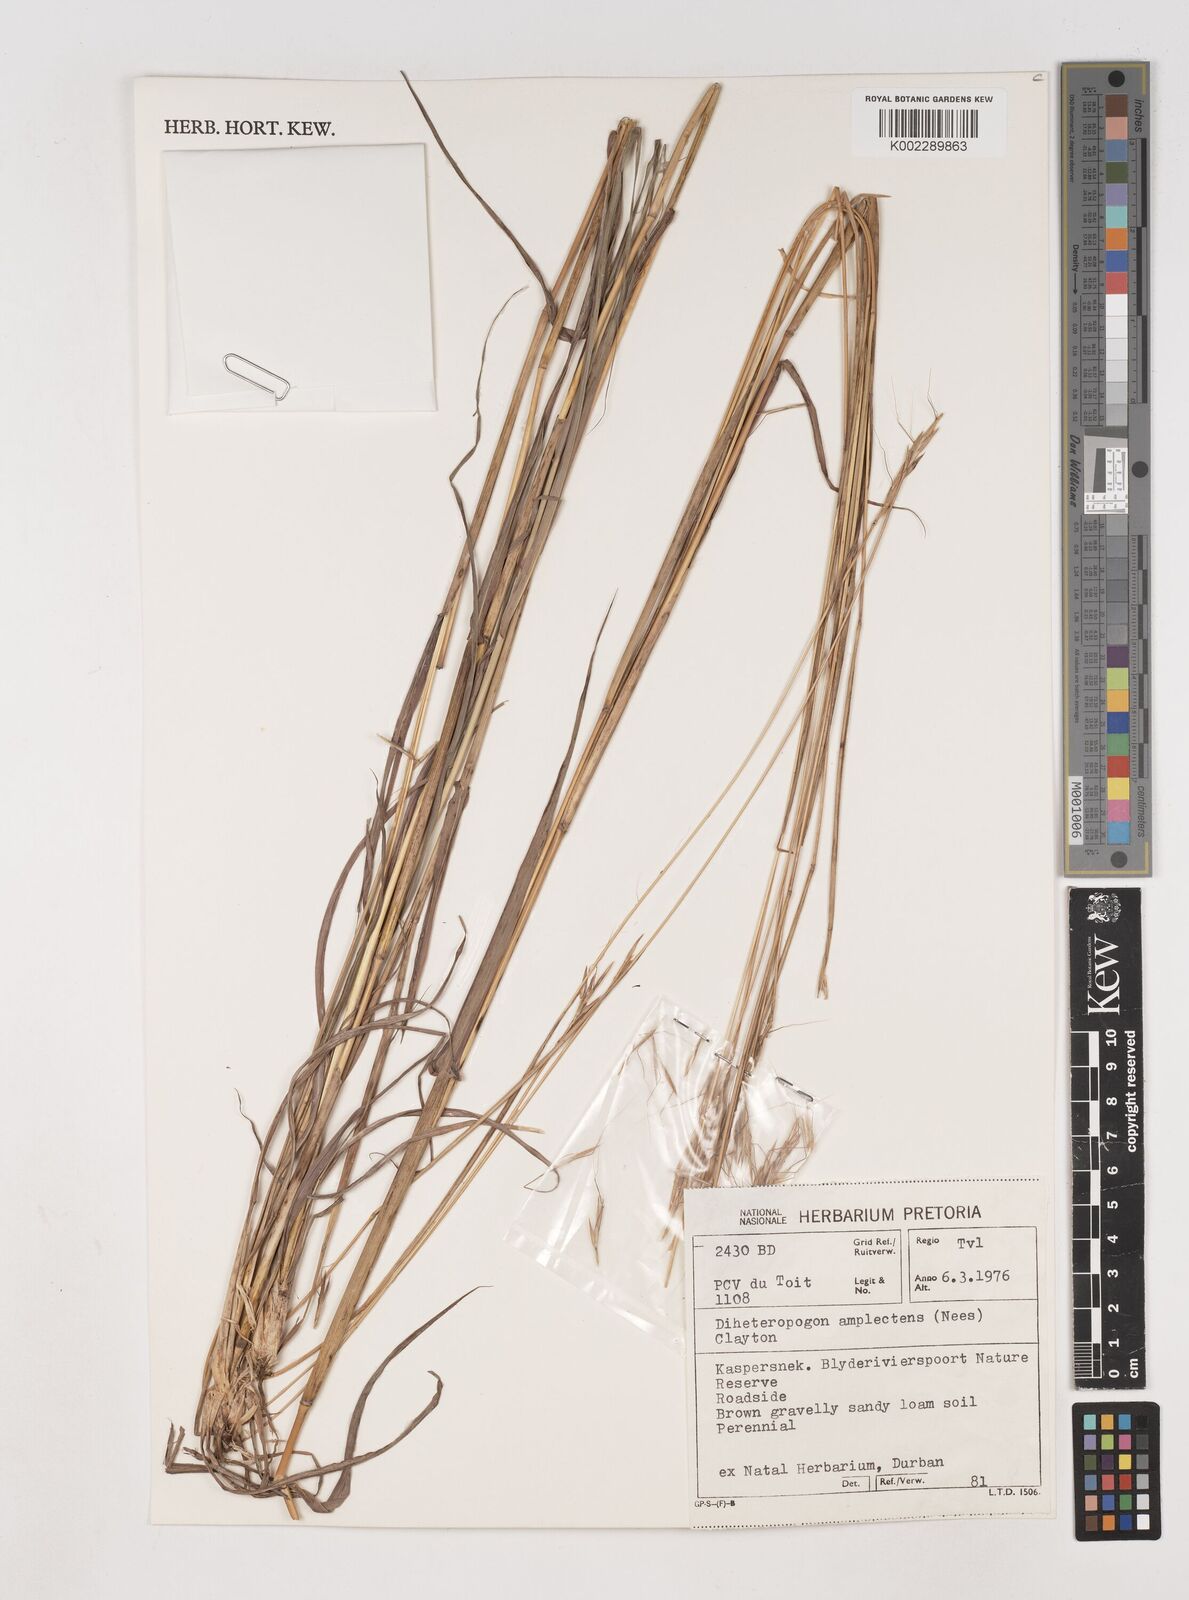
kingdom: Plantae
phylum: Tracheophyta
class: Liliopsida
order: Poales
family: Poaceae
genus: Diheteropogon
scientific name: Diheteropogon amplectens
